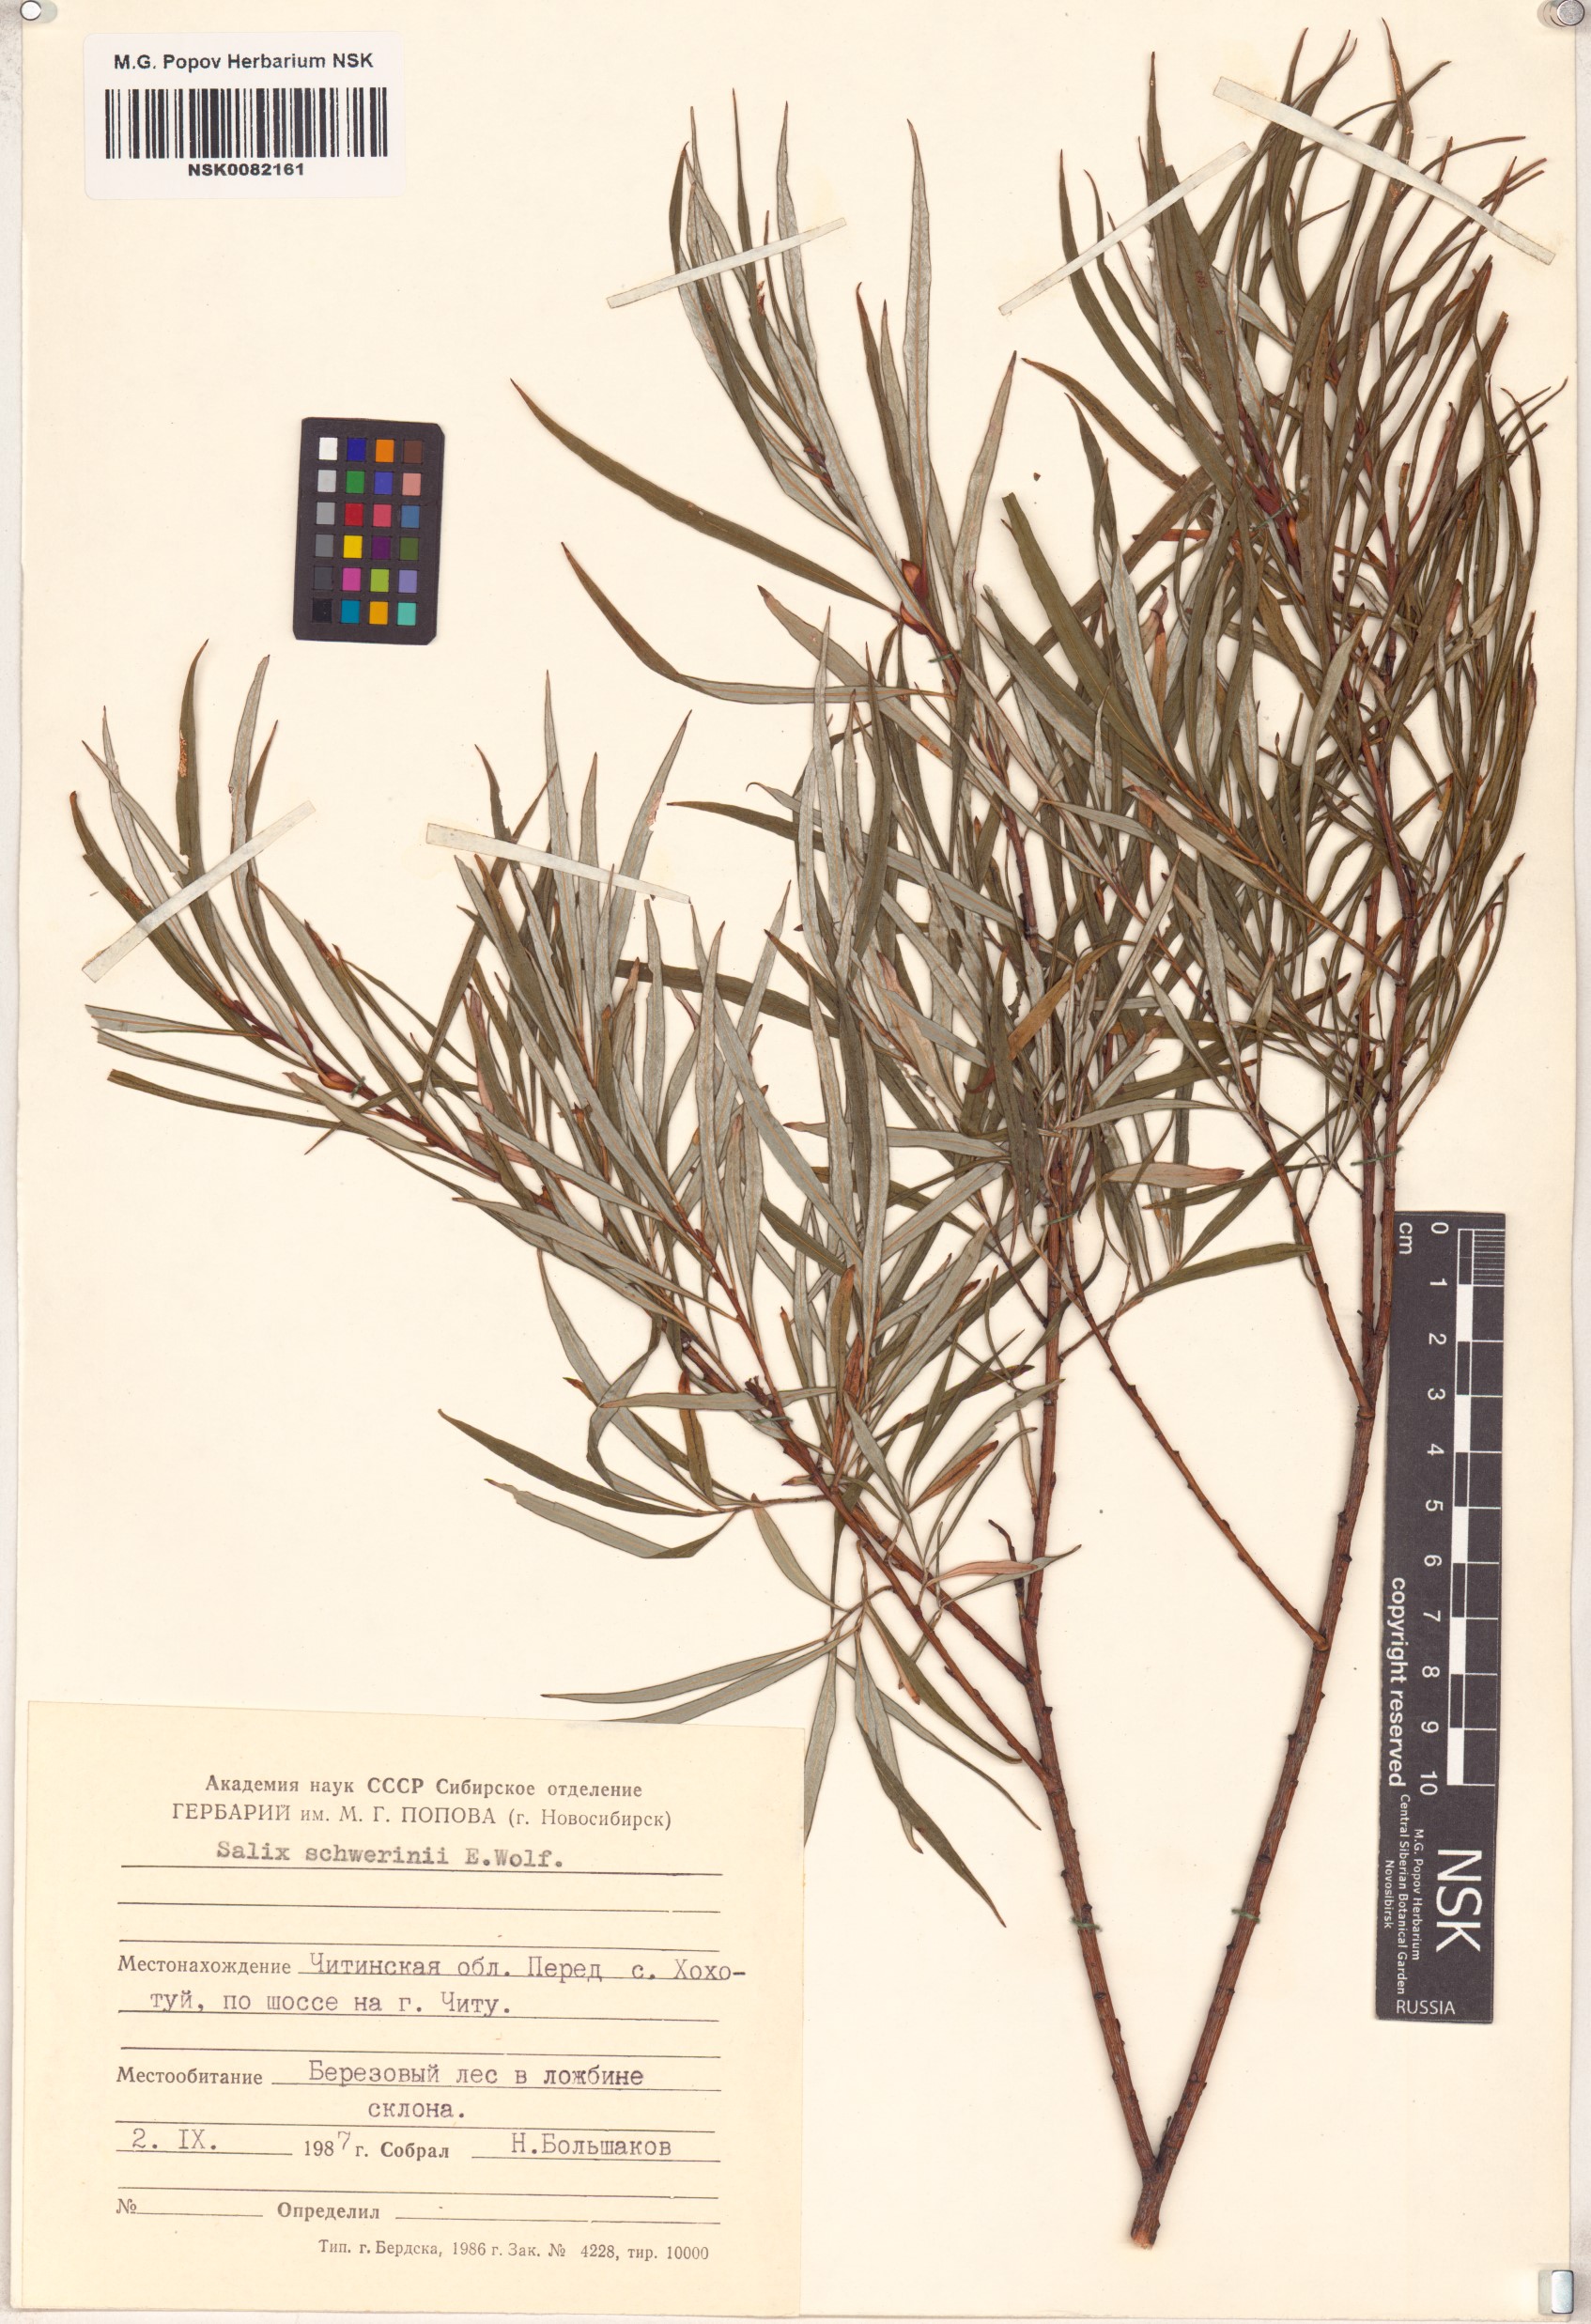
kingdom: Plantae
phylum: Tracheophyta
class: Magnoliopsida
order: Malpighiales
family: Salicaceae
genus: Salix
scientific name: Salix schwerinii
